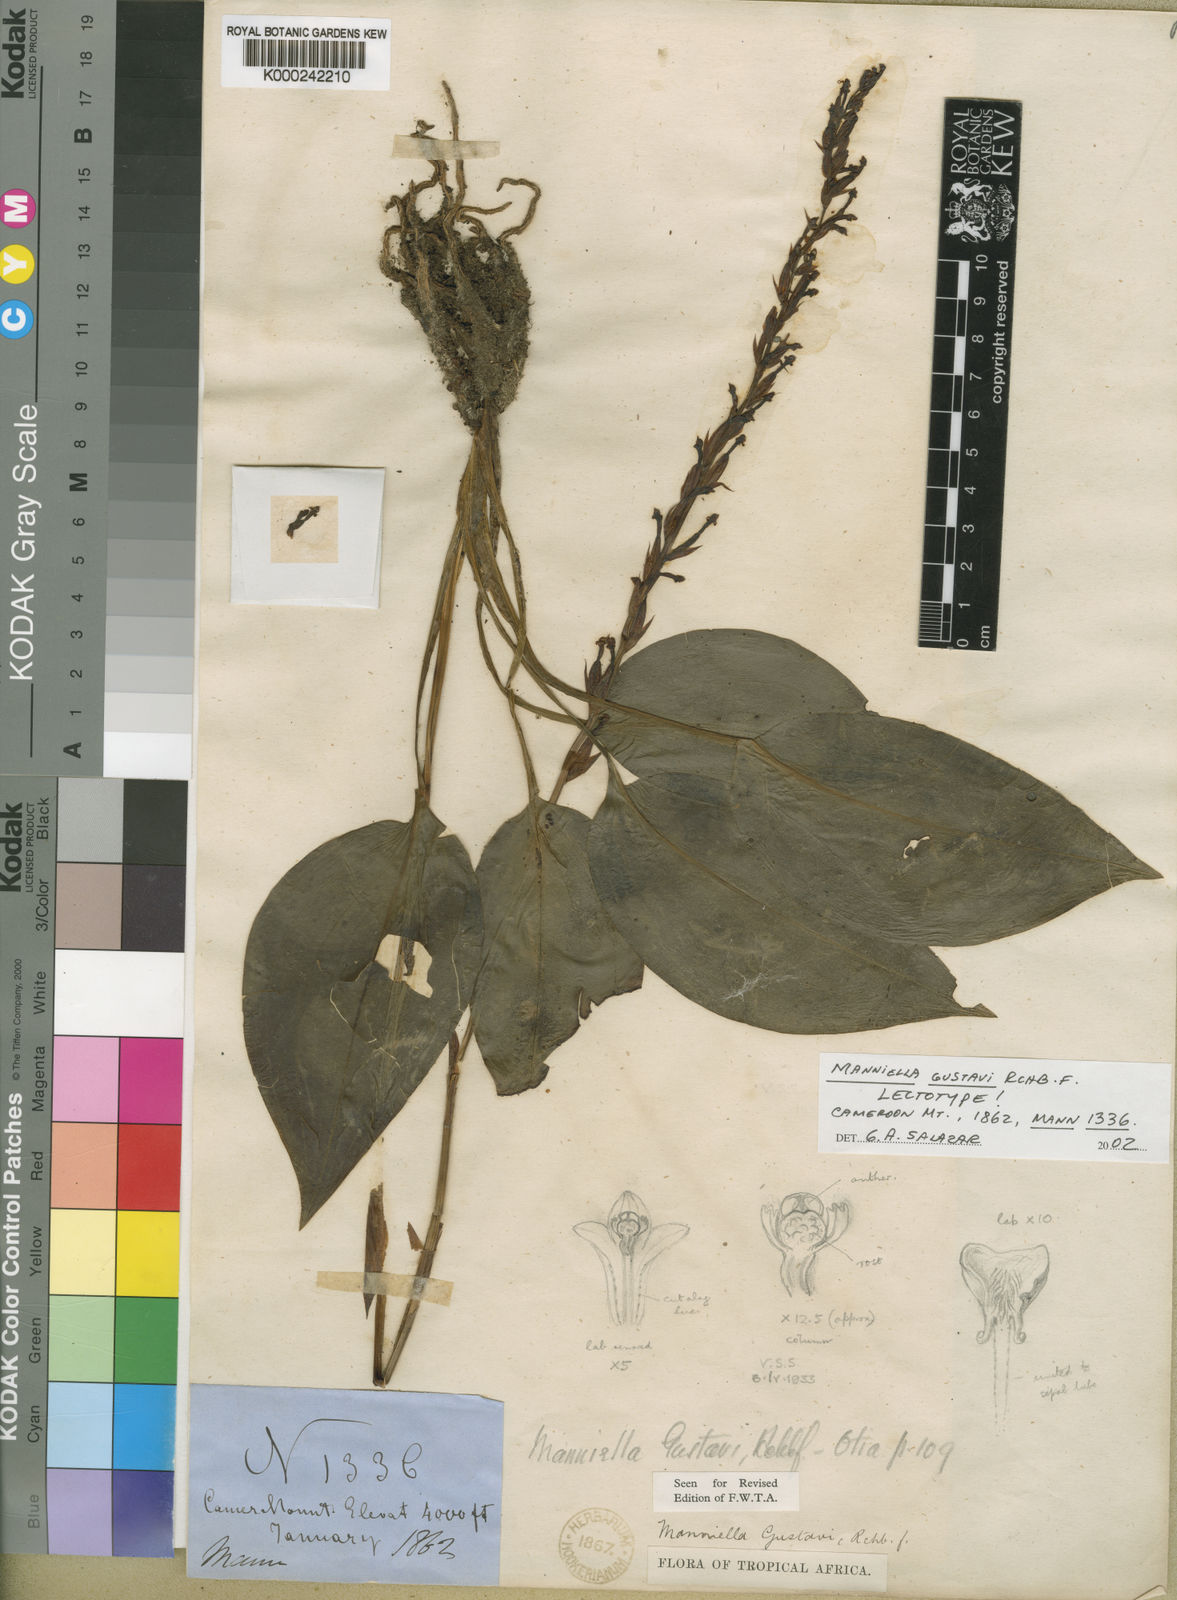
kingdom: Plantae
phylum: Tracheophyta
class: Liliopsida
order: Asparagales
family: Orchidaceae
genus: Manniella
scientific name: Manniella gustavi
